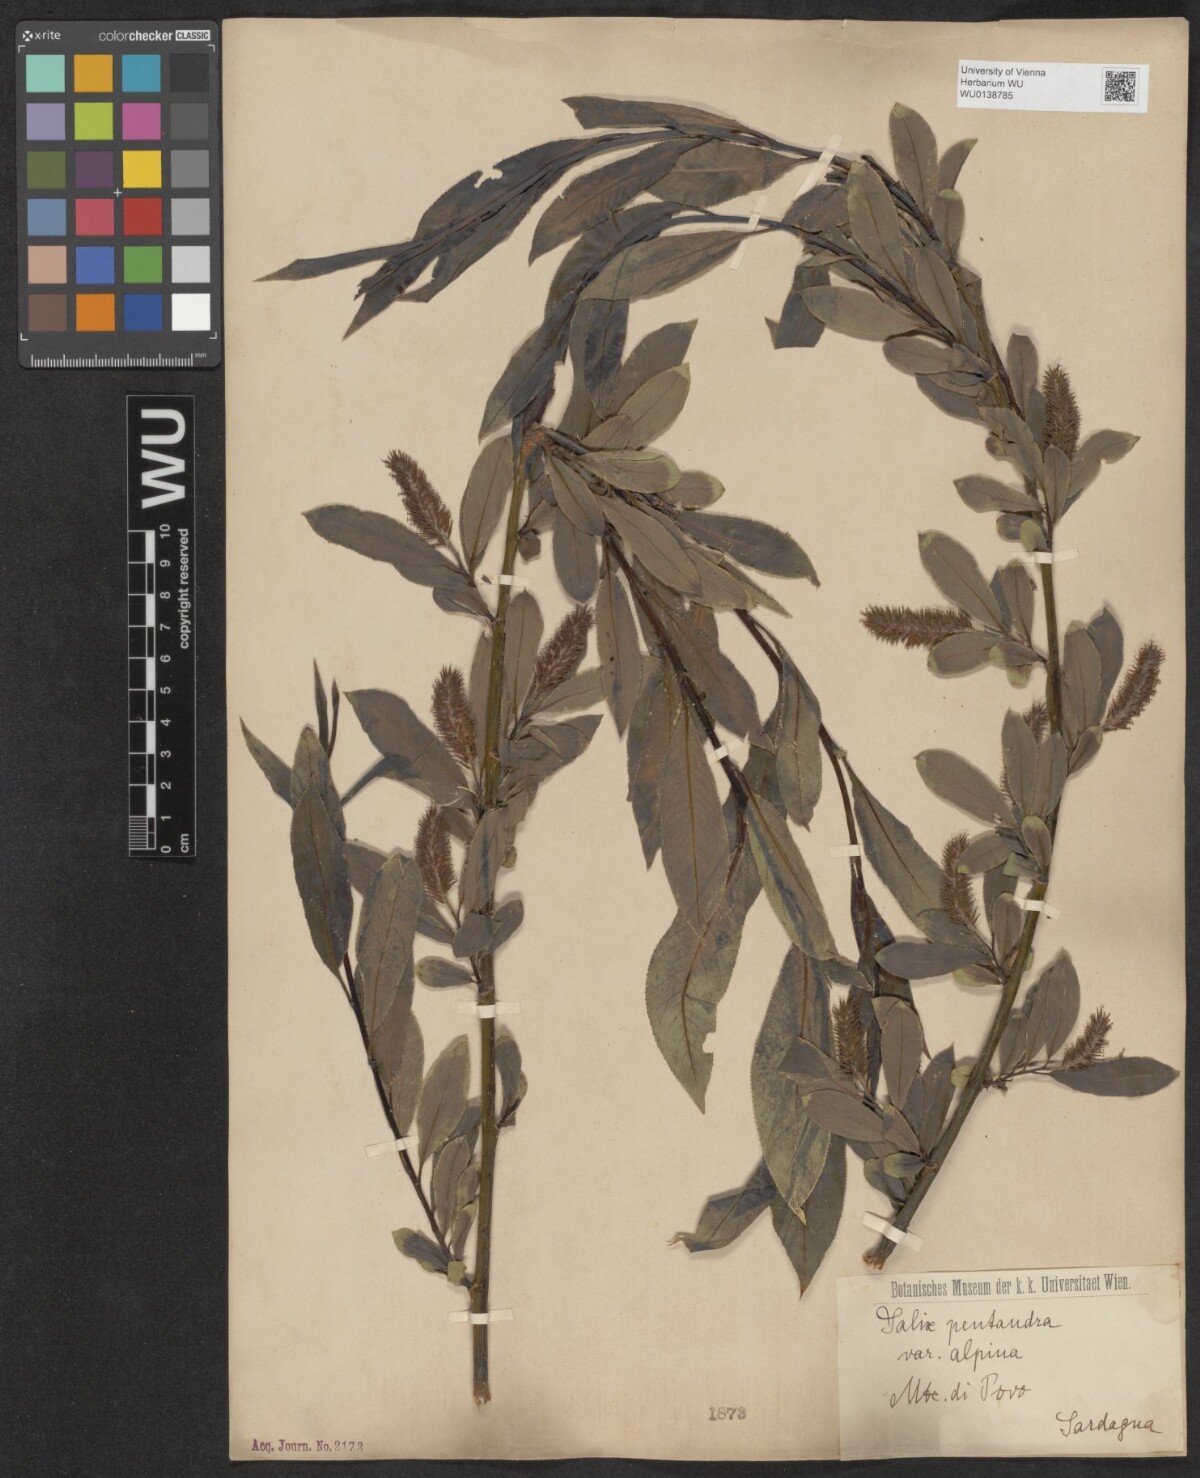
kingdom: Plantae
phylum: Tracheophyta
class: Magnoliopsida
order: Malpighiales
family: Salicaceae
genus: Salix
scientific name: Salix pentandra
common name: Bay willow
